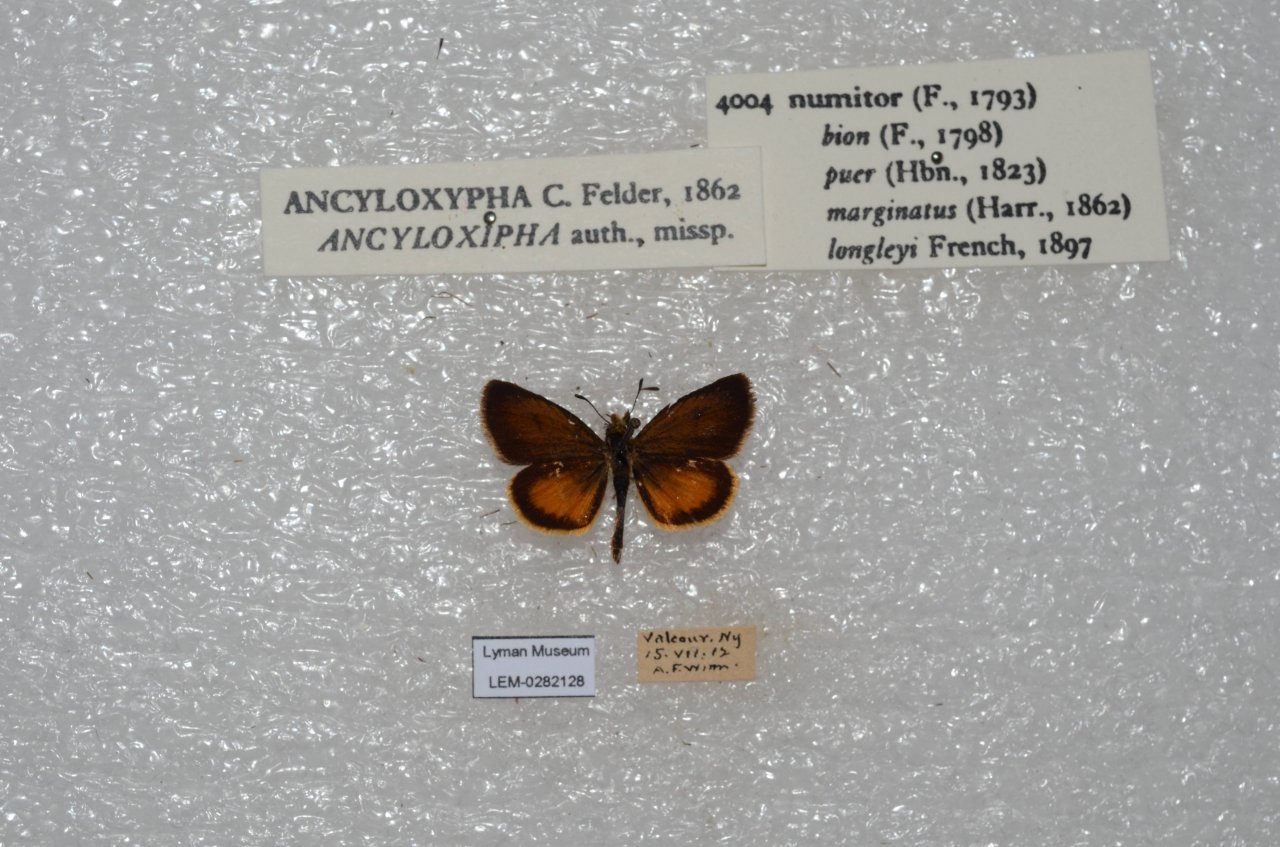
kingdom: Animalia
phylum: Arthropoda
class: Insecta
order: Lepidoptera
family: Hesperiidae
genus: Ancyloxypha
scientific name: Ancyloxypha numitor
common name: Least Skipper
